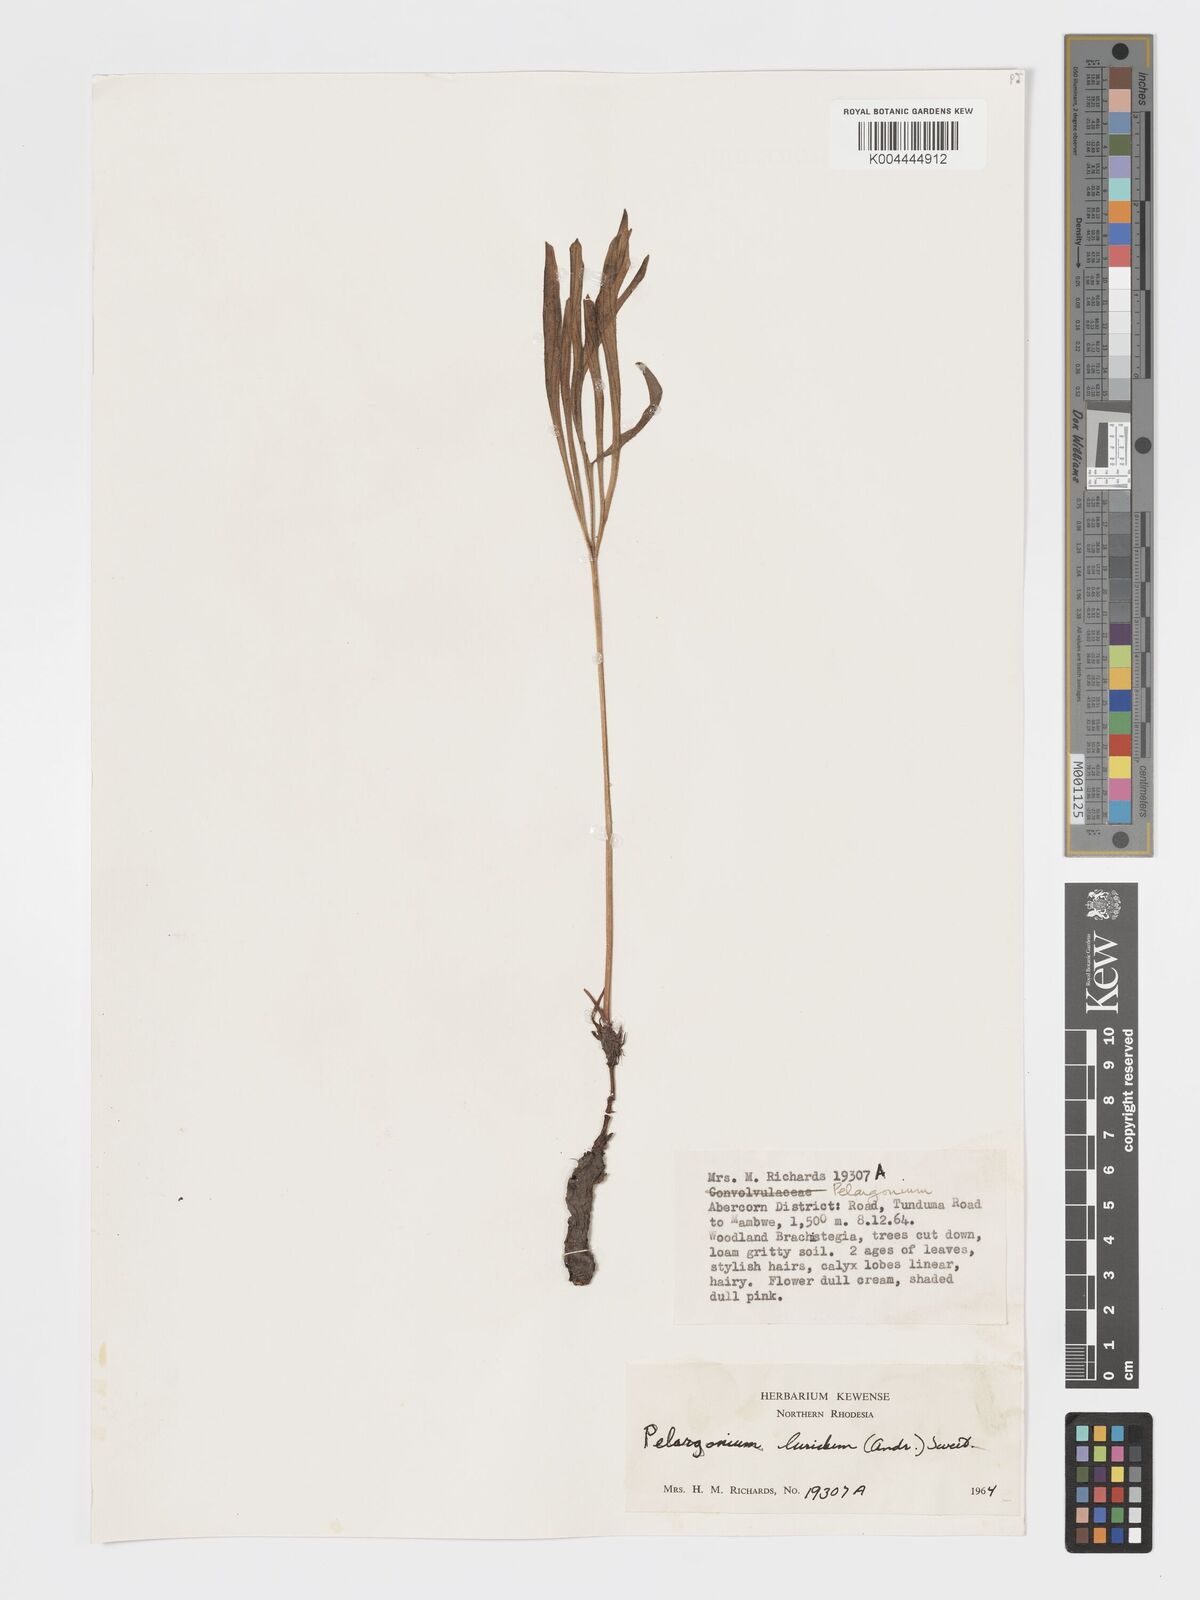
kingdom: Plantae
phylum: Tracheophyta
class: Magnoliopsida
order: Geraniales
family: Geraniaceae
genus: Pelargonium
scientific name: Pelargonium luridum
